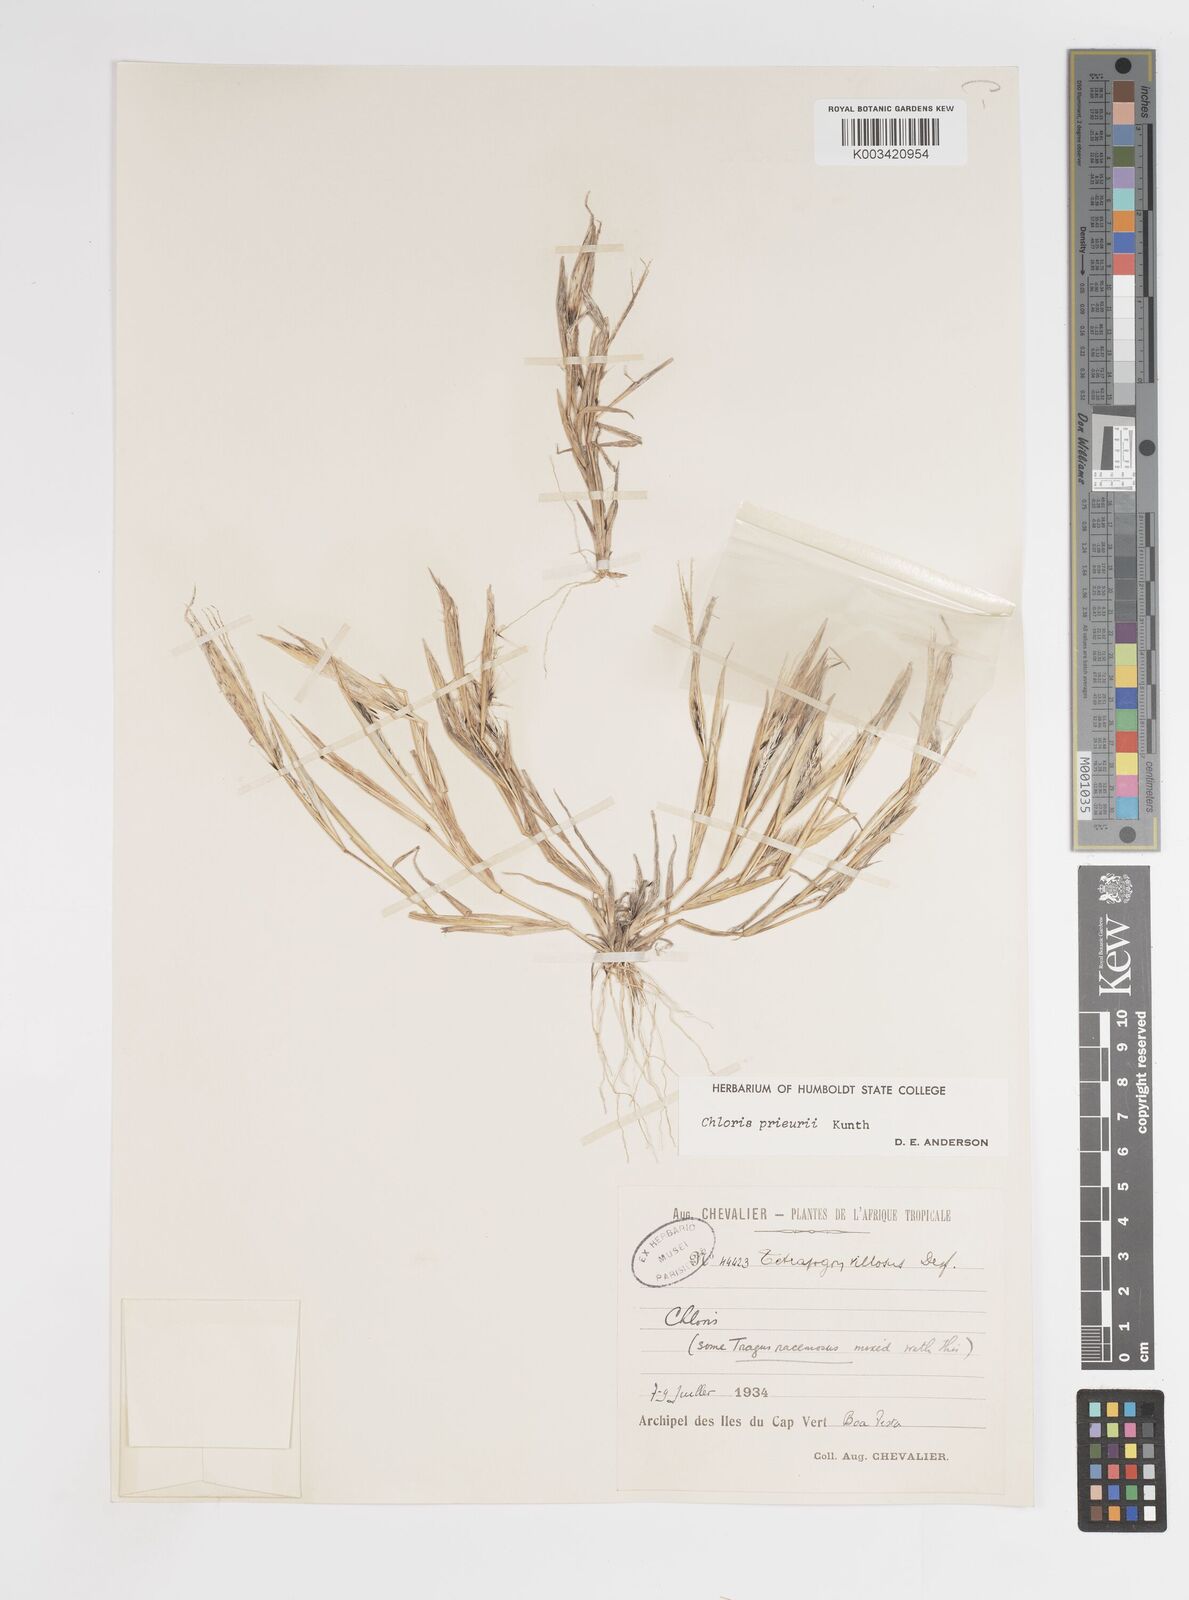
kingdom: Plantae
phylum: Tracheophyta
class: Liliopsida
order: Poales
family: Poaceae
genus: Enteropogon
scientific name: Enteropogon prieurii
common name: Prieur's umbrellagrass
